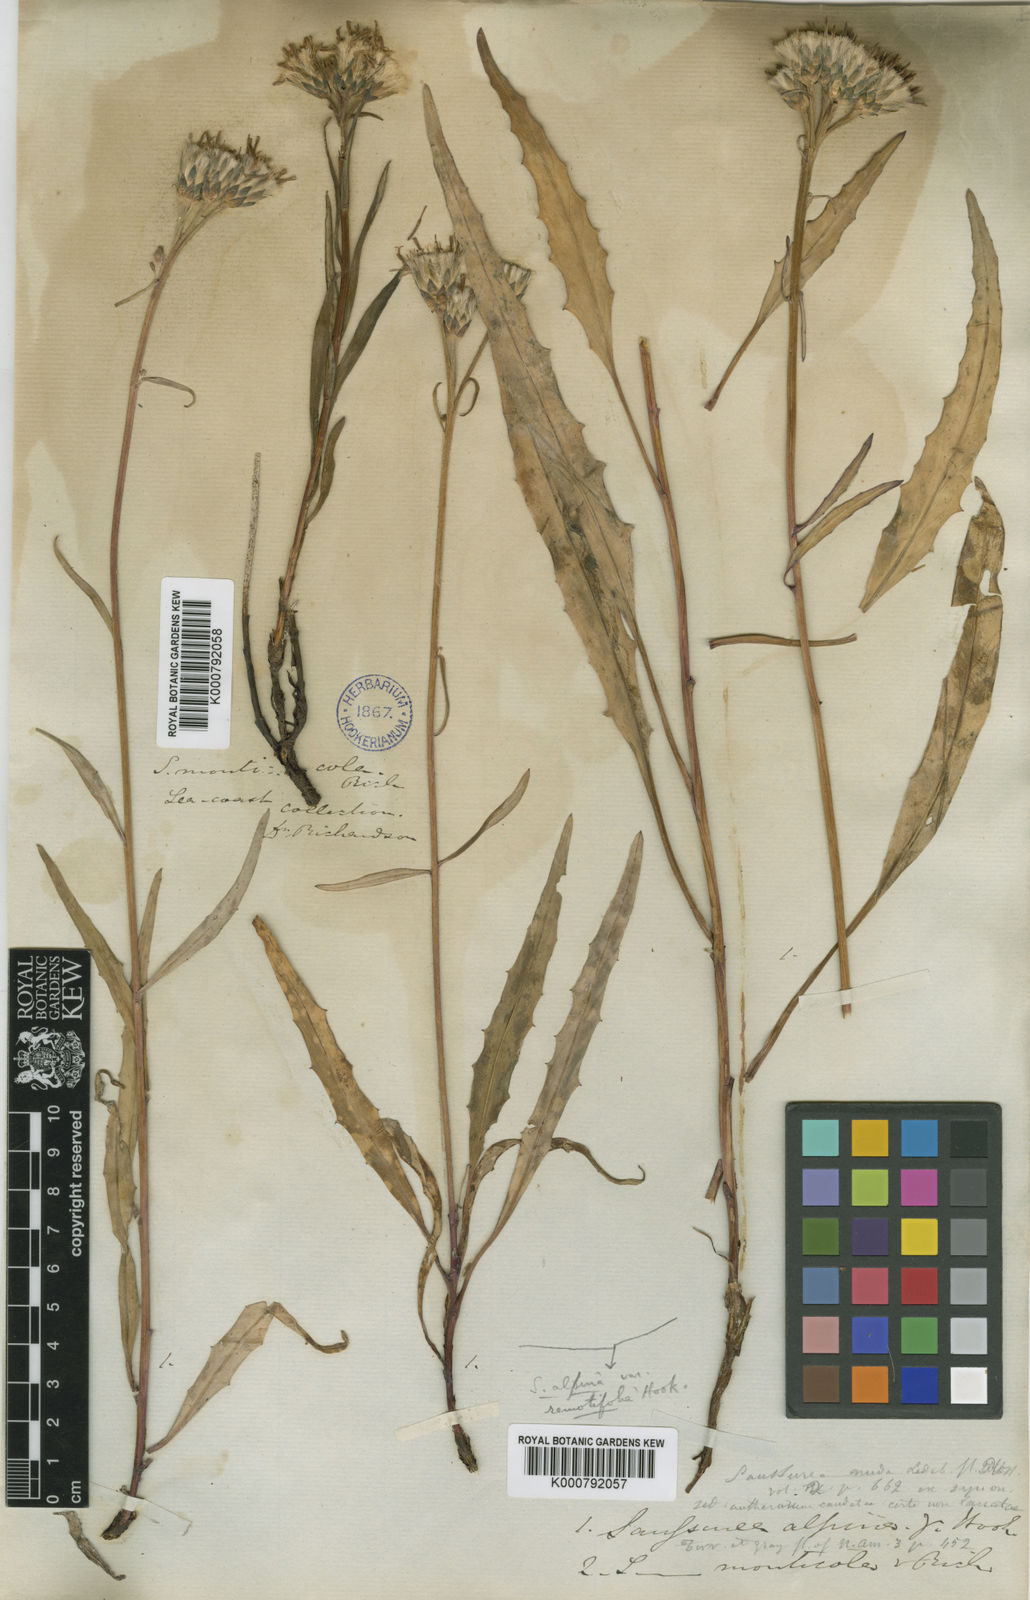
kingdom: Plantae
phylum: Tracheophyta
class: Magnoliopsida
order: Asterales
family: Asteraceae
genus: Saussurea
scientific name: Saussurea alpina
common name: Alpine saw-wort
